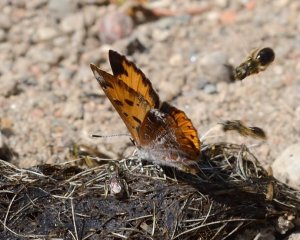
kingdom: Animalia
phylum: Arthropoda
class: Insecta
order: Lepidoptera
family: Lycaenidae
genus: Feniseca
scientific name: Feniseca tarquinius
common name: Harvester
